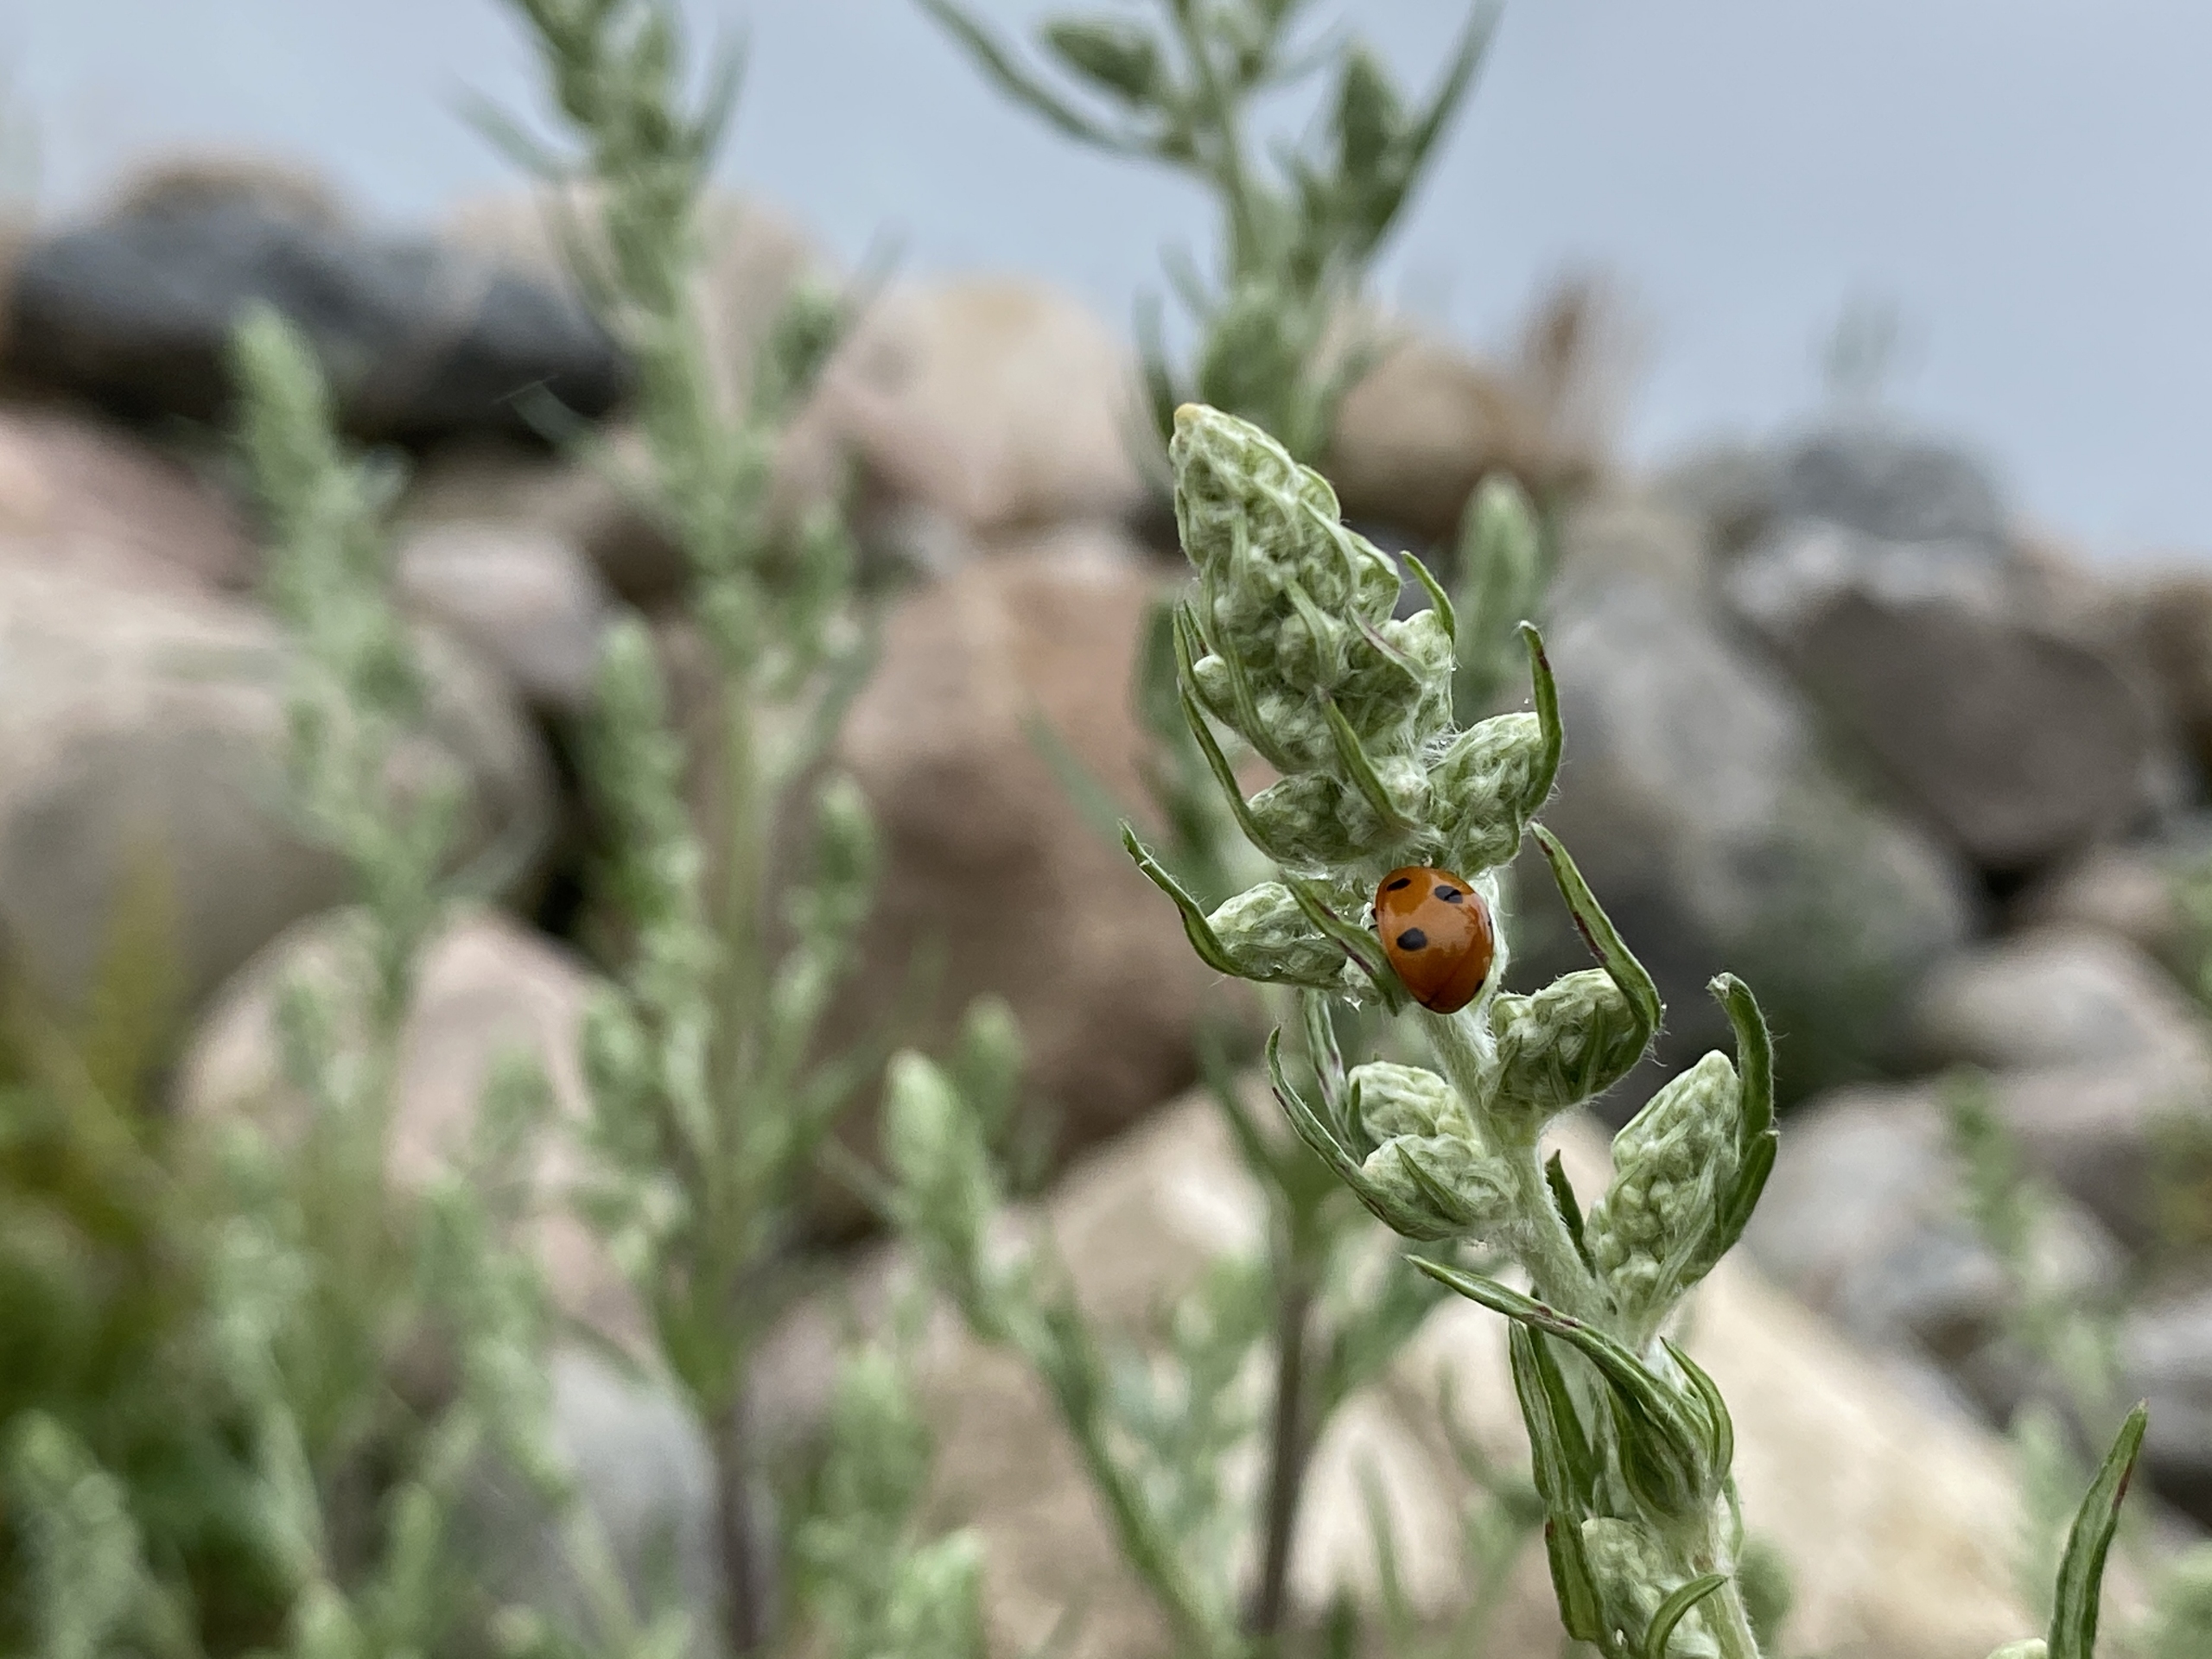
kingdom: Animalia
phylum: Arthropoda
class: Insecta
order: Coleoptera
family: Coccinellidae
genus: Coccinella
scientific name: Coccinella septempunctata
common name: Syvplettet mariehøne
